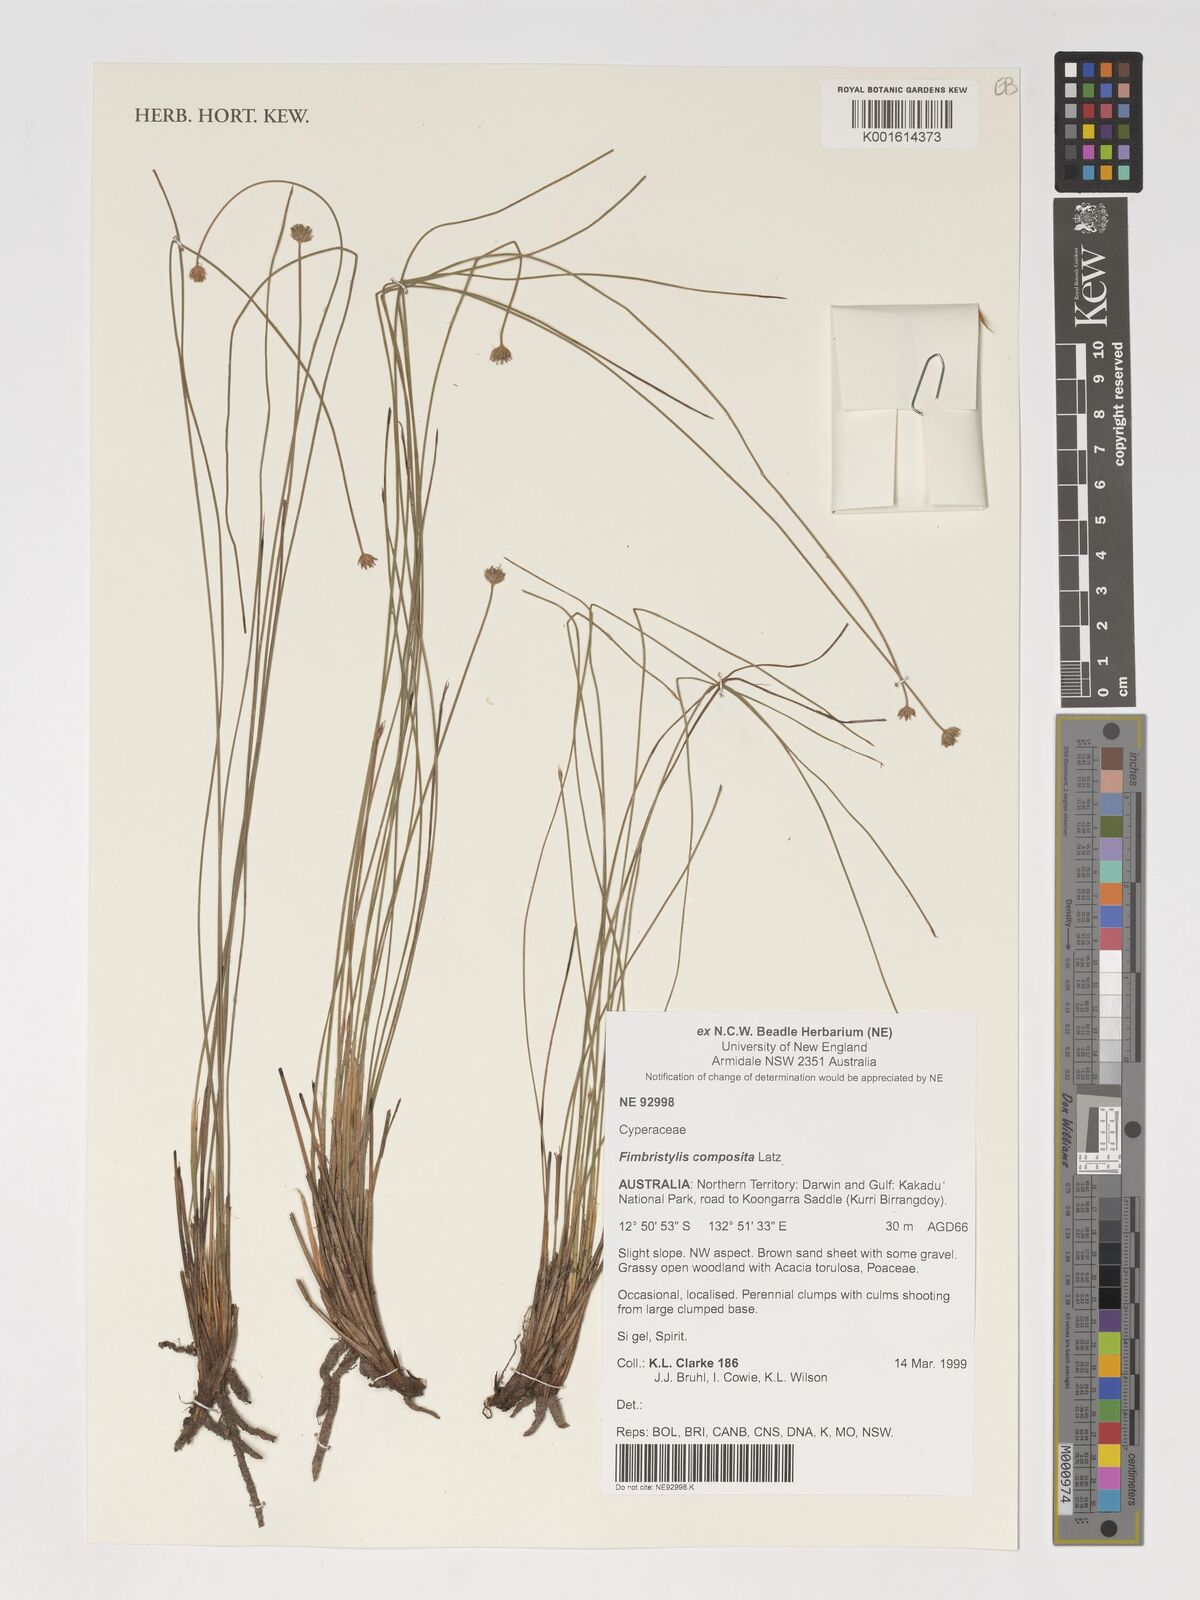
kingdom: Plantae
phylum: Tracheophyta
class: Liliopsida
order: Poales
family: Cyperaceae
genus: Scleroschoenus
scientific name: Scleroschoenus compositus
